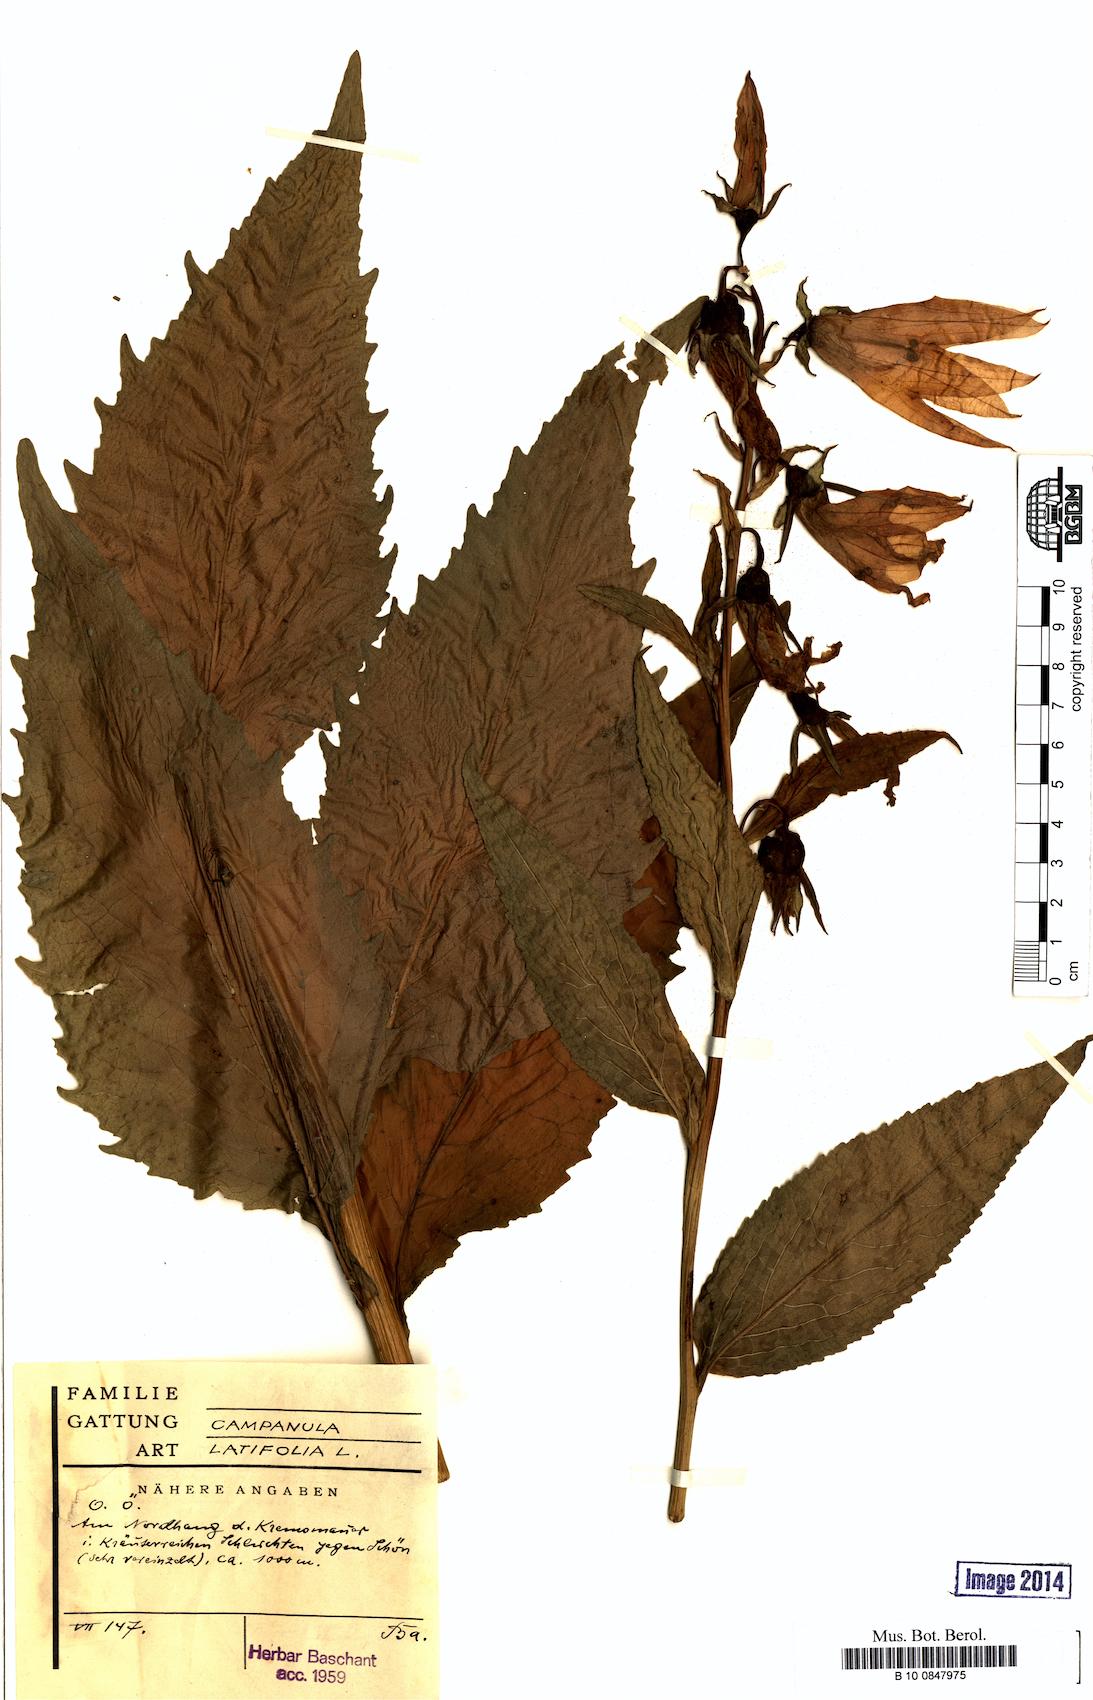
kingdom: Plantae
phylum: Tracheophyta
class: Magnoliopsida
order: Asterales
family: Campanulaceae
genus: Campanula
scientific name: Campanula latifolia
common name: Giant bellflower
